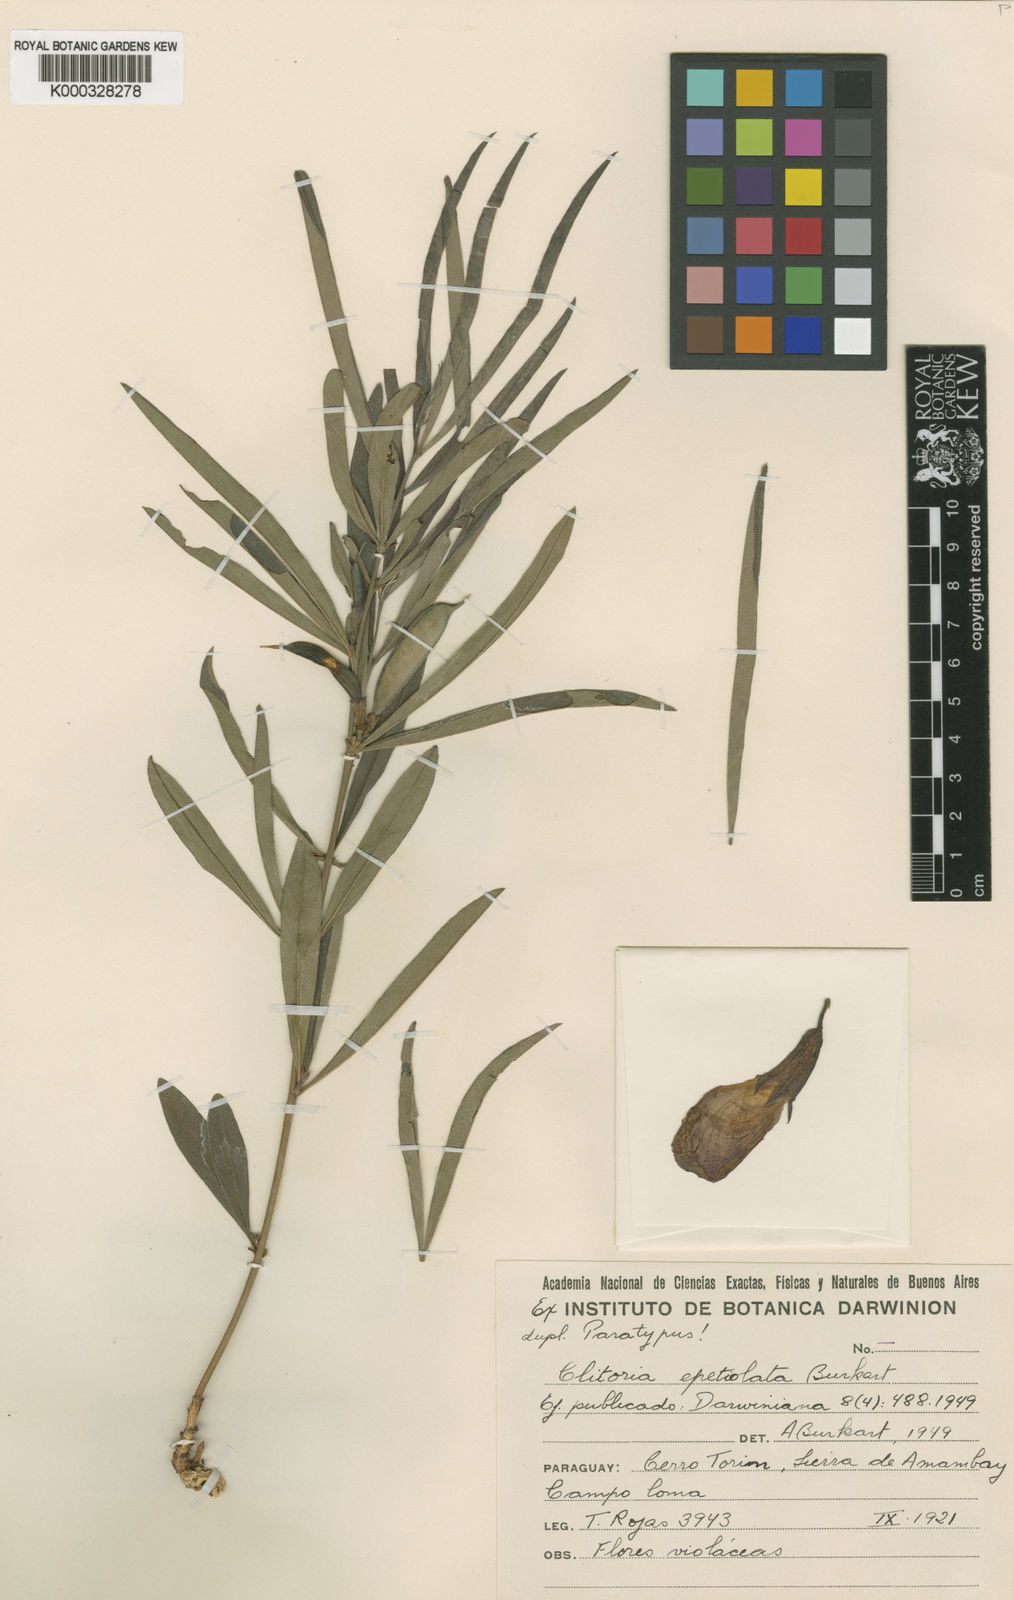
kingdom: Plantae
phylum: Tracheophyta
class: Magnoliopsida
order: Fabales
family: Fabaceae
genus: Clitoria
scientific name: Clitoria epetiolata
